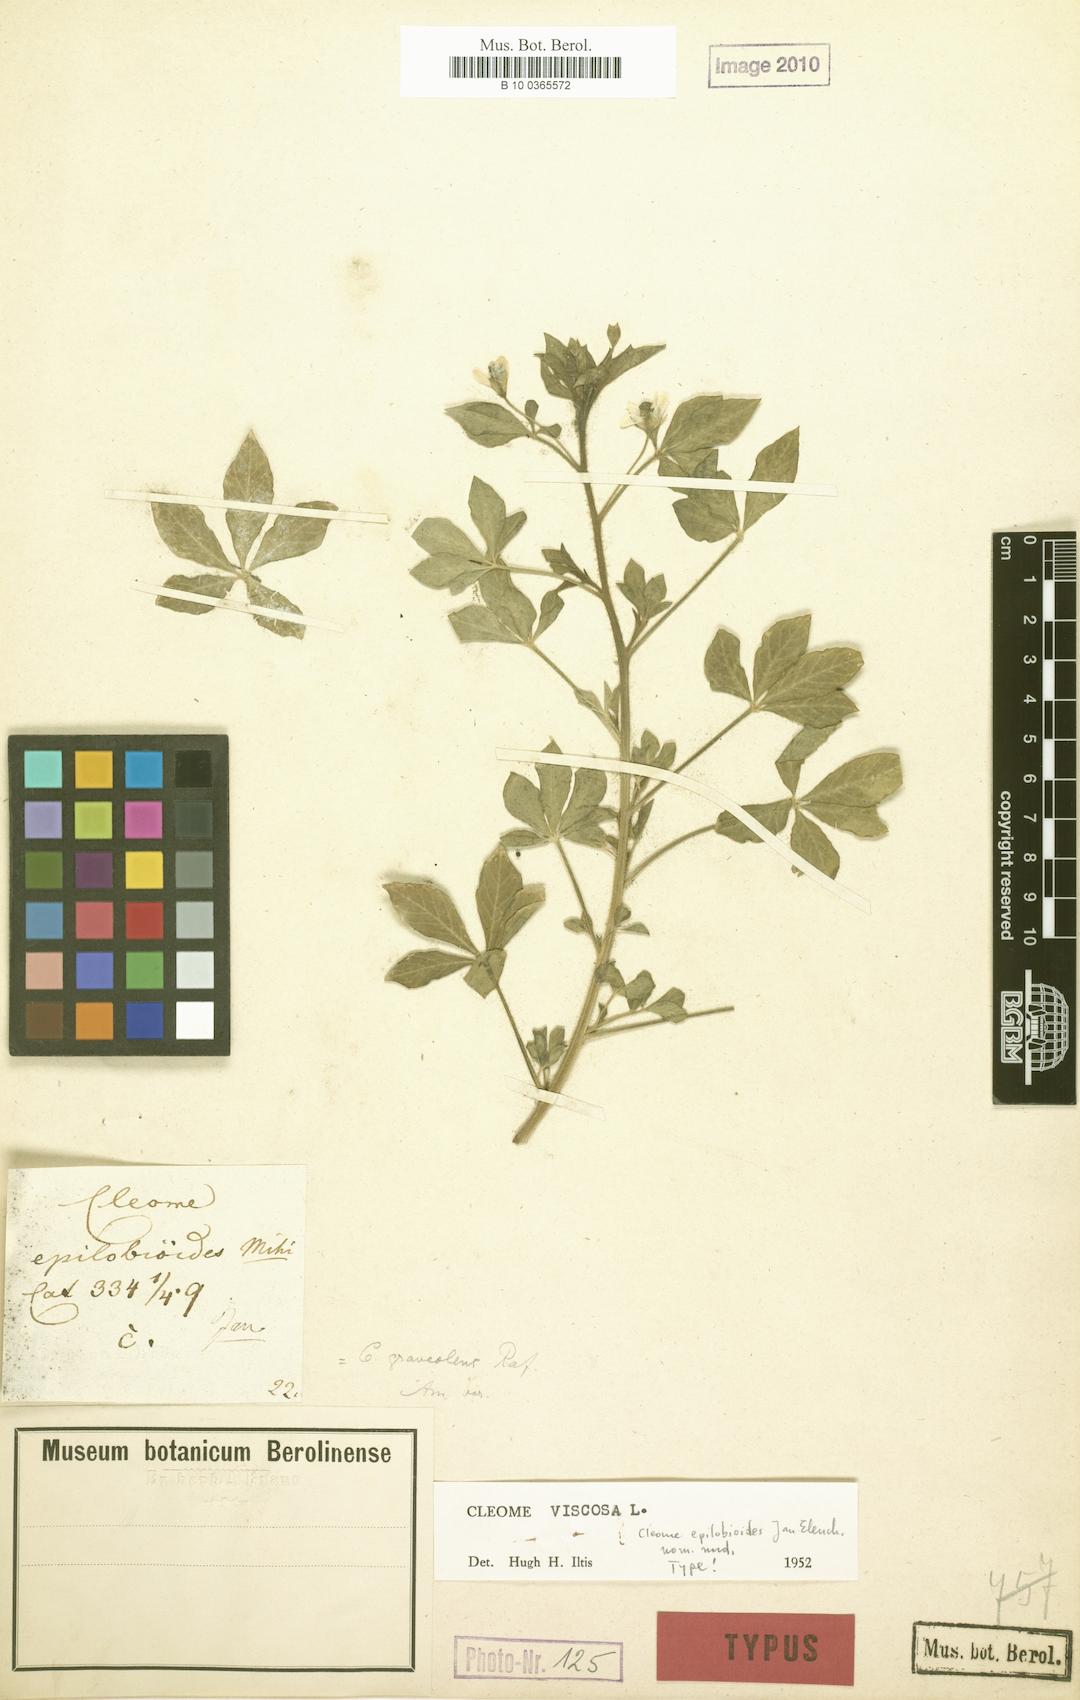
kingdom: Plantae
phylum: Tracheophyta
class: Magnoliopsida
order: Brassicales
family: Cleomaceae
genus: Arivela
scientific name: Arivela viscosa
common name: Asian spiderflower
